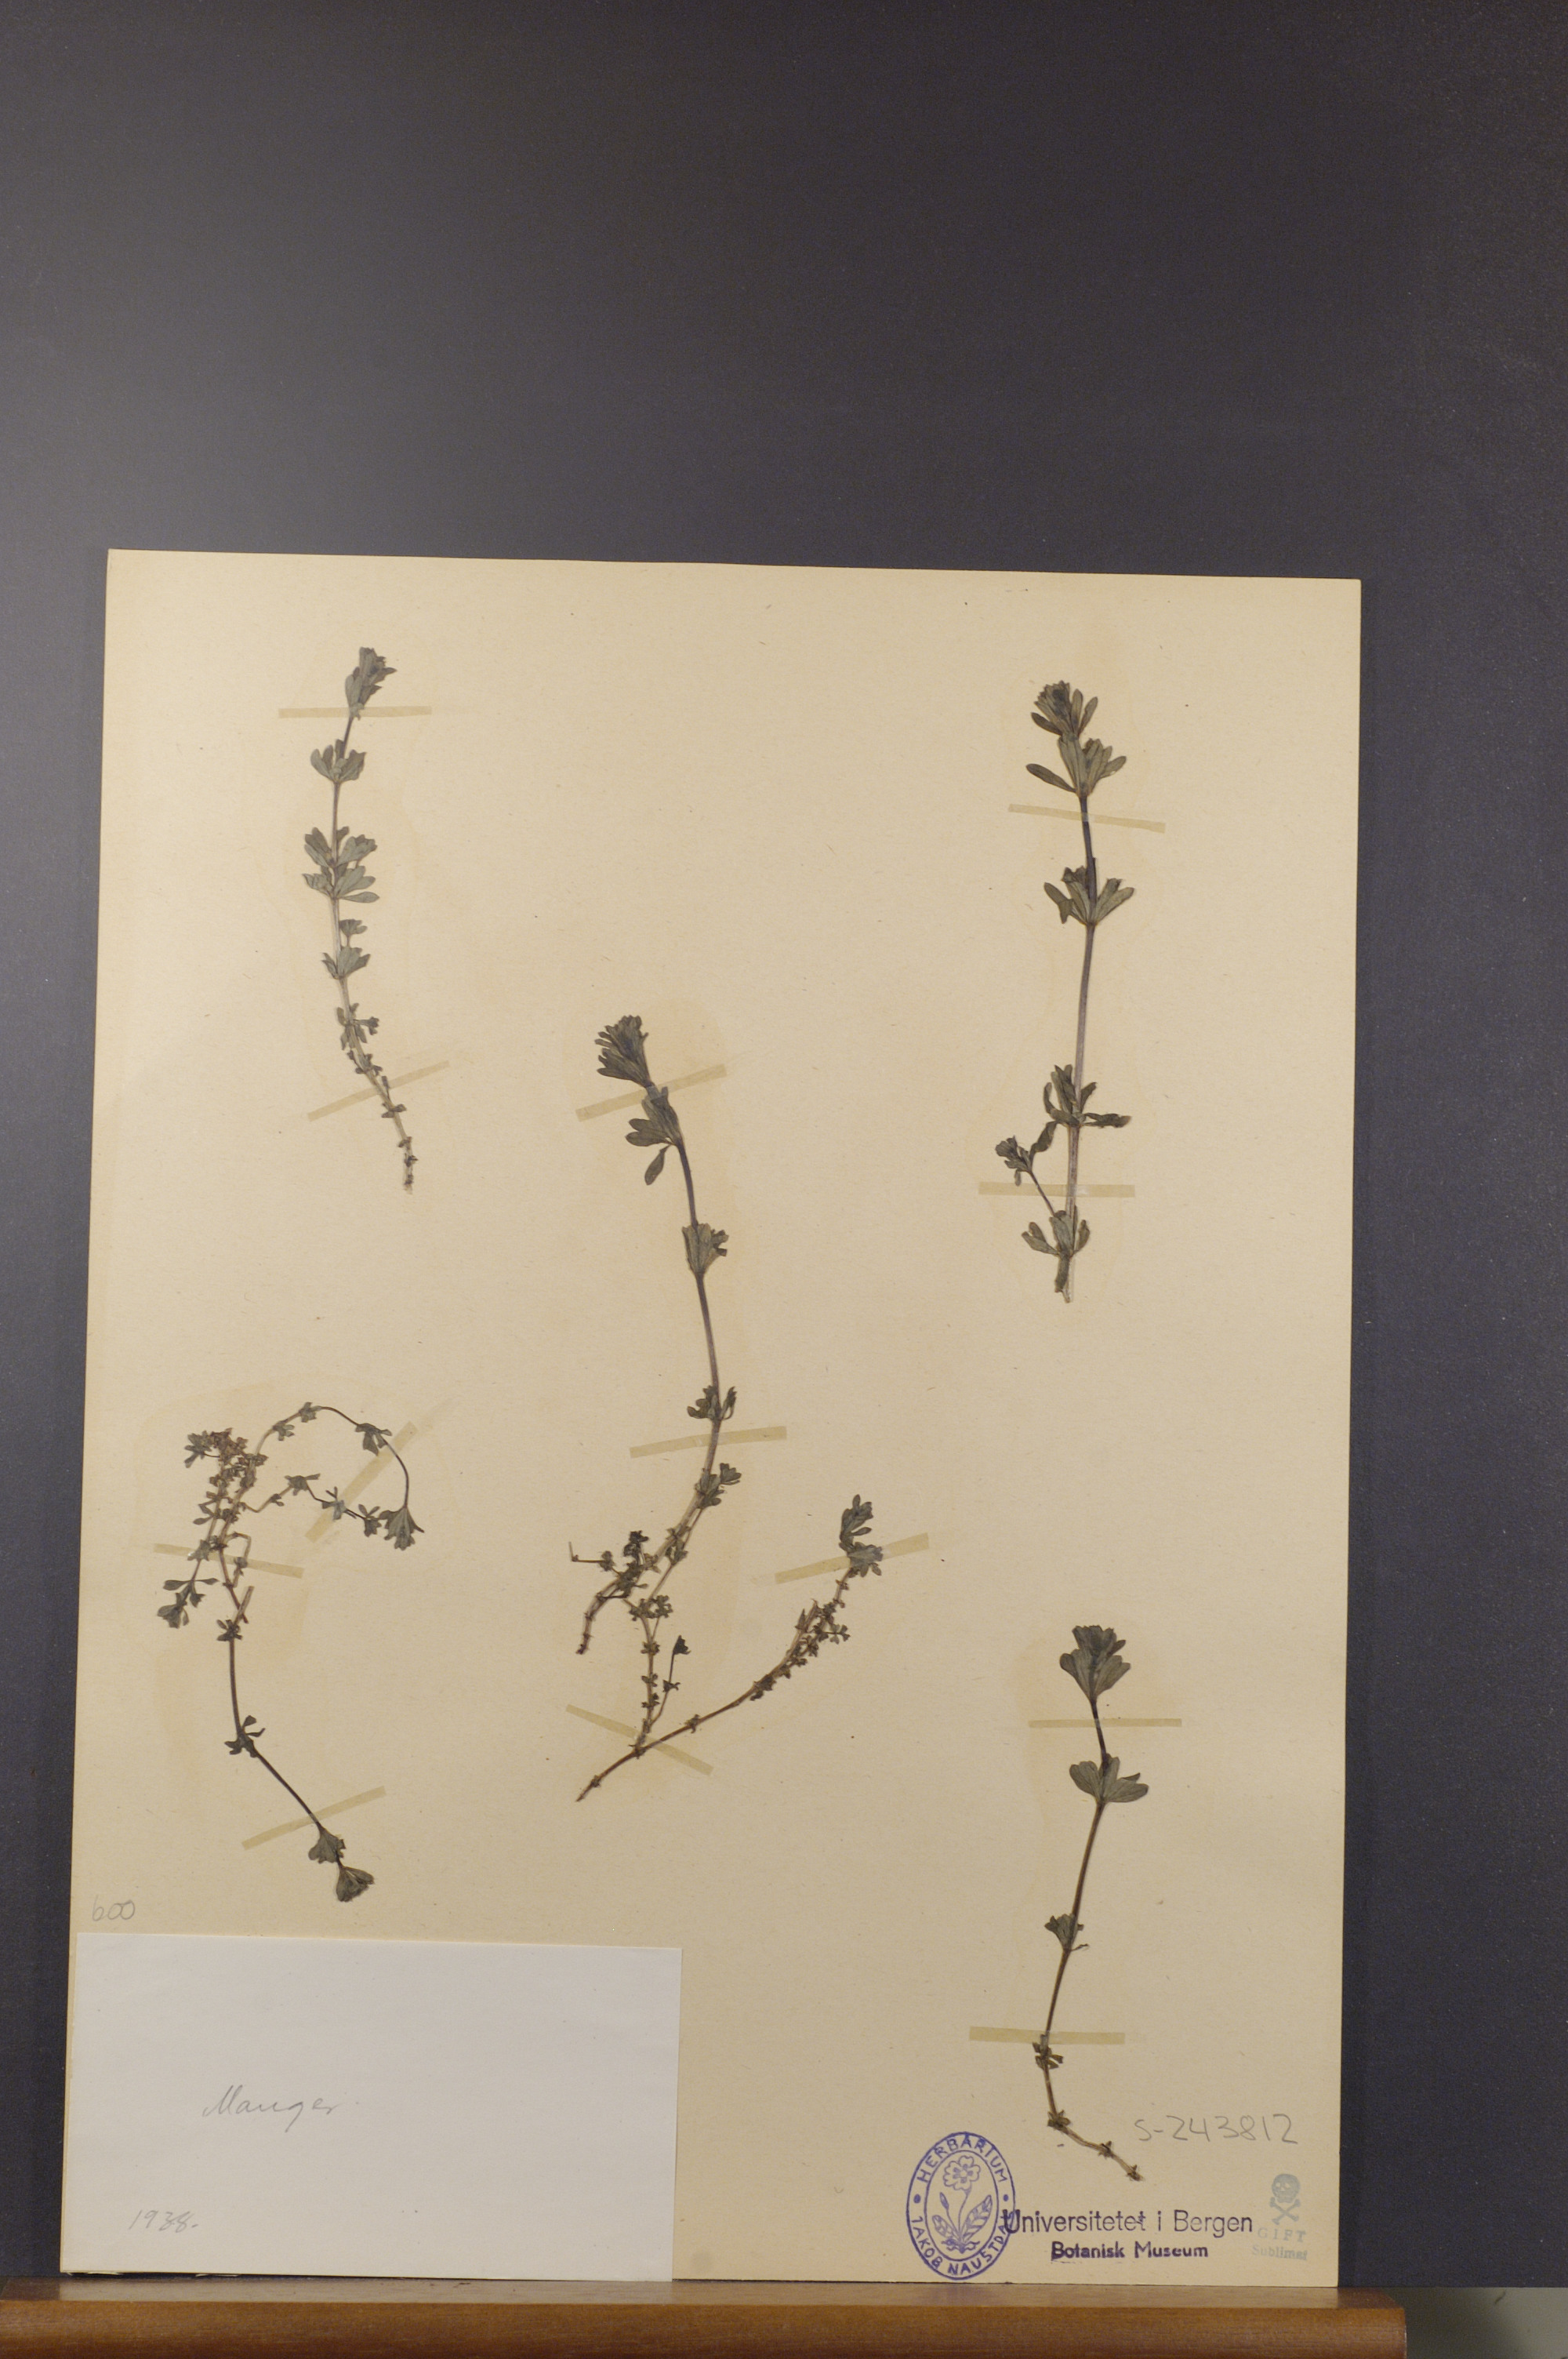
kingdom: Plantae
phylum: Tracheophyta
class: Magnoliopsida
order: Gentianales
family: Rubiaceae
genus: Galium
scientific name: Galium
